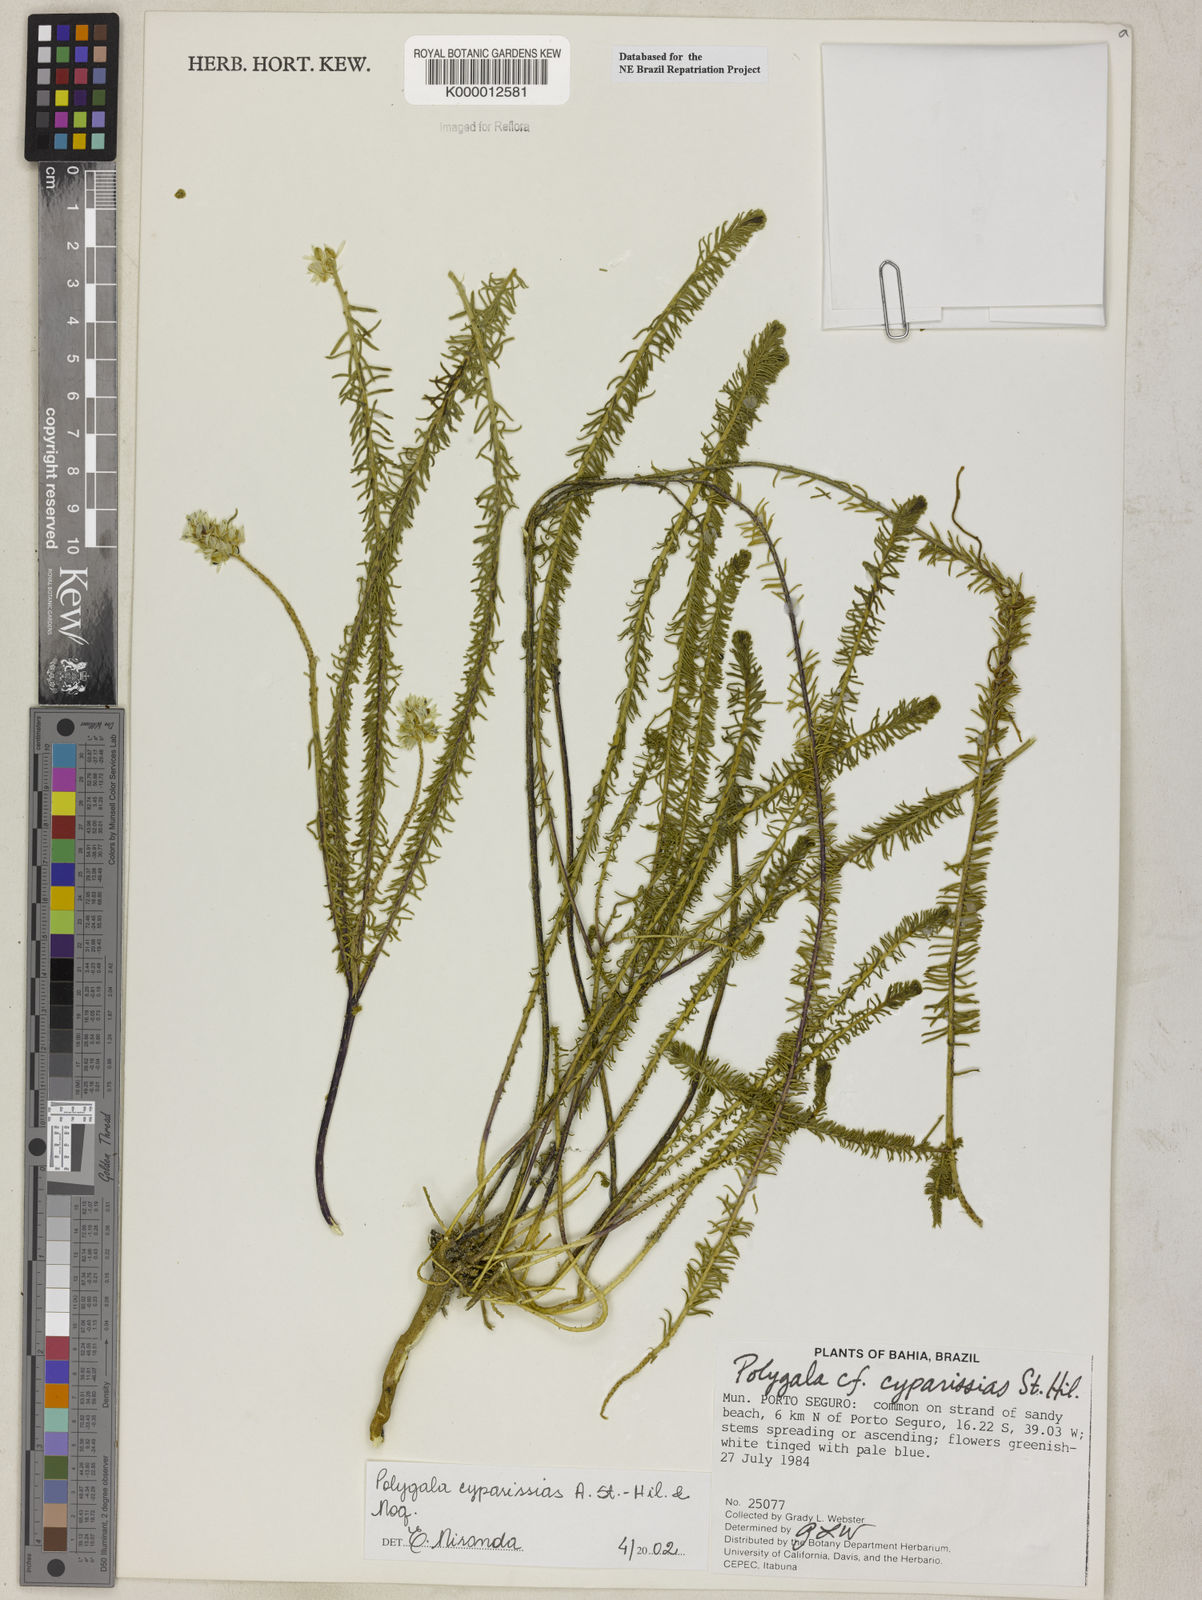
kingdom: Plantae
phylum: Tracheophyta
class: Magnoliopsida
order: Fabales
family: Polygalaceae
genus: Polygala
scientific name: Polygala cyparissias
